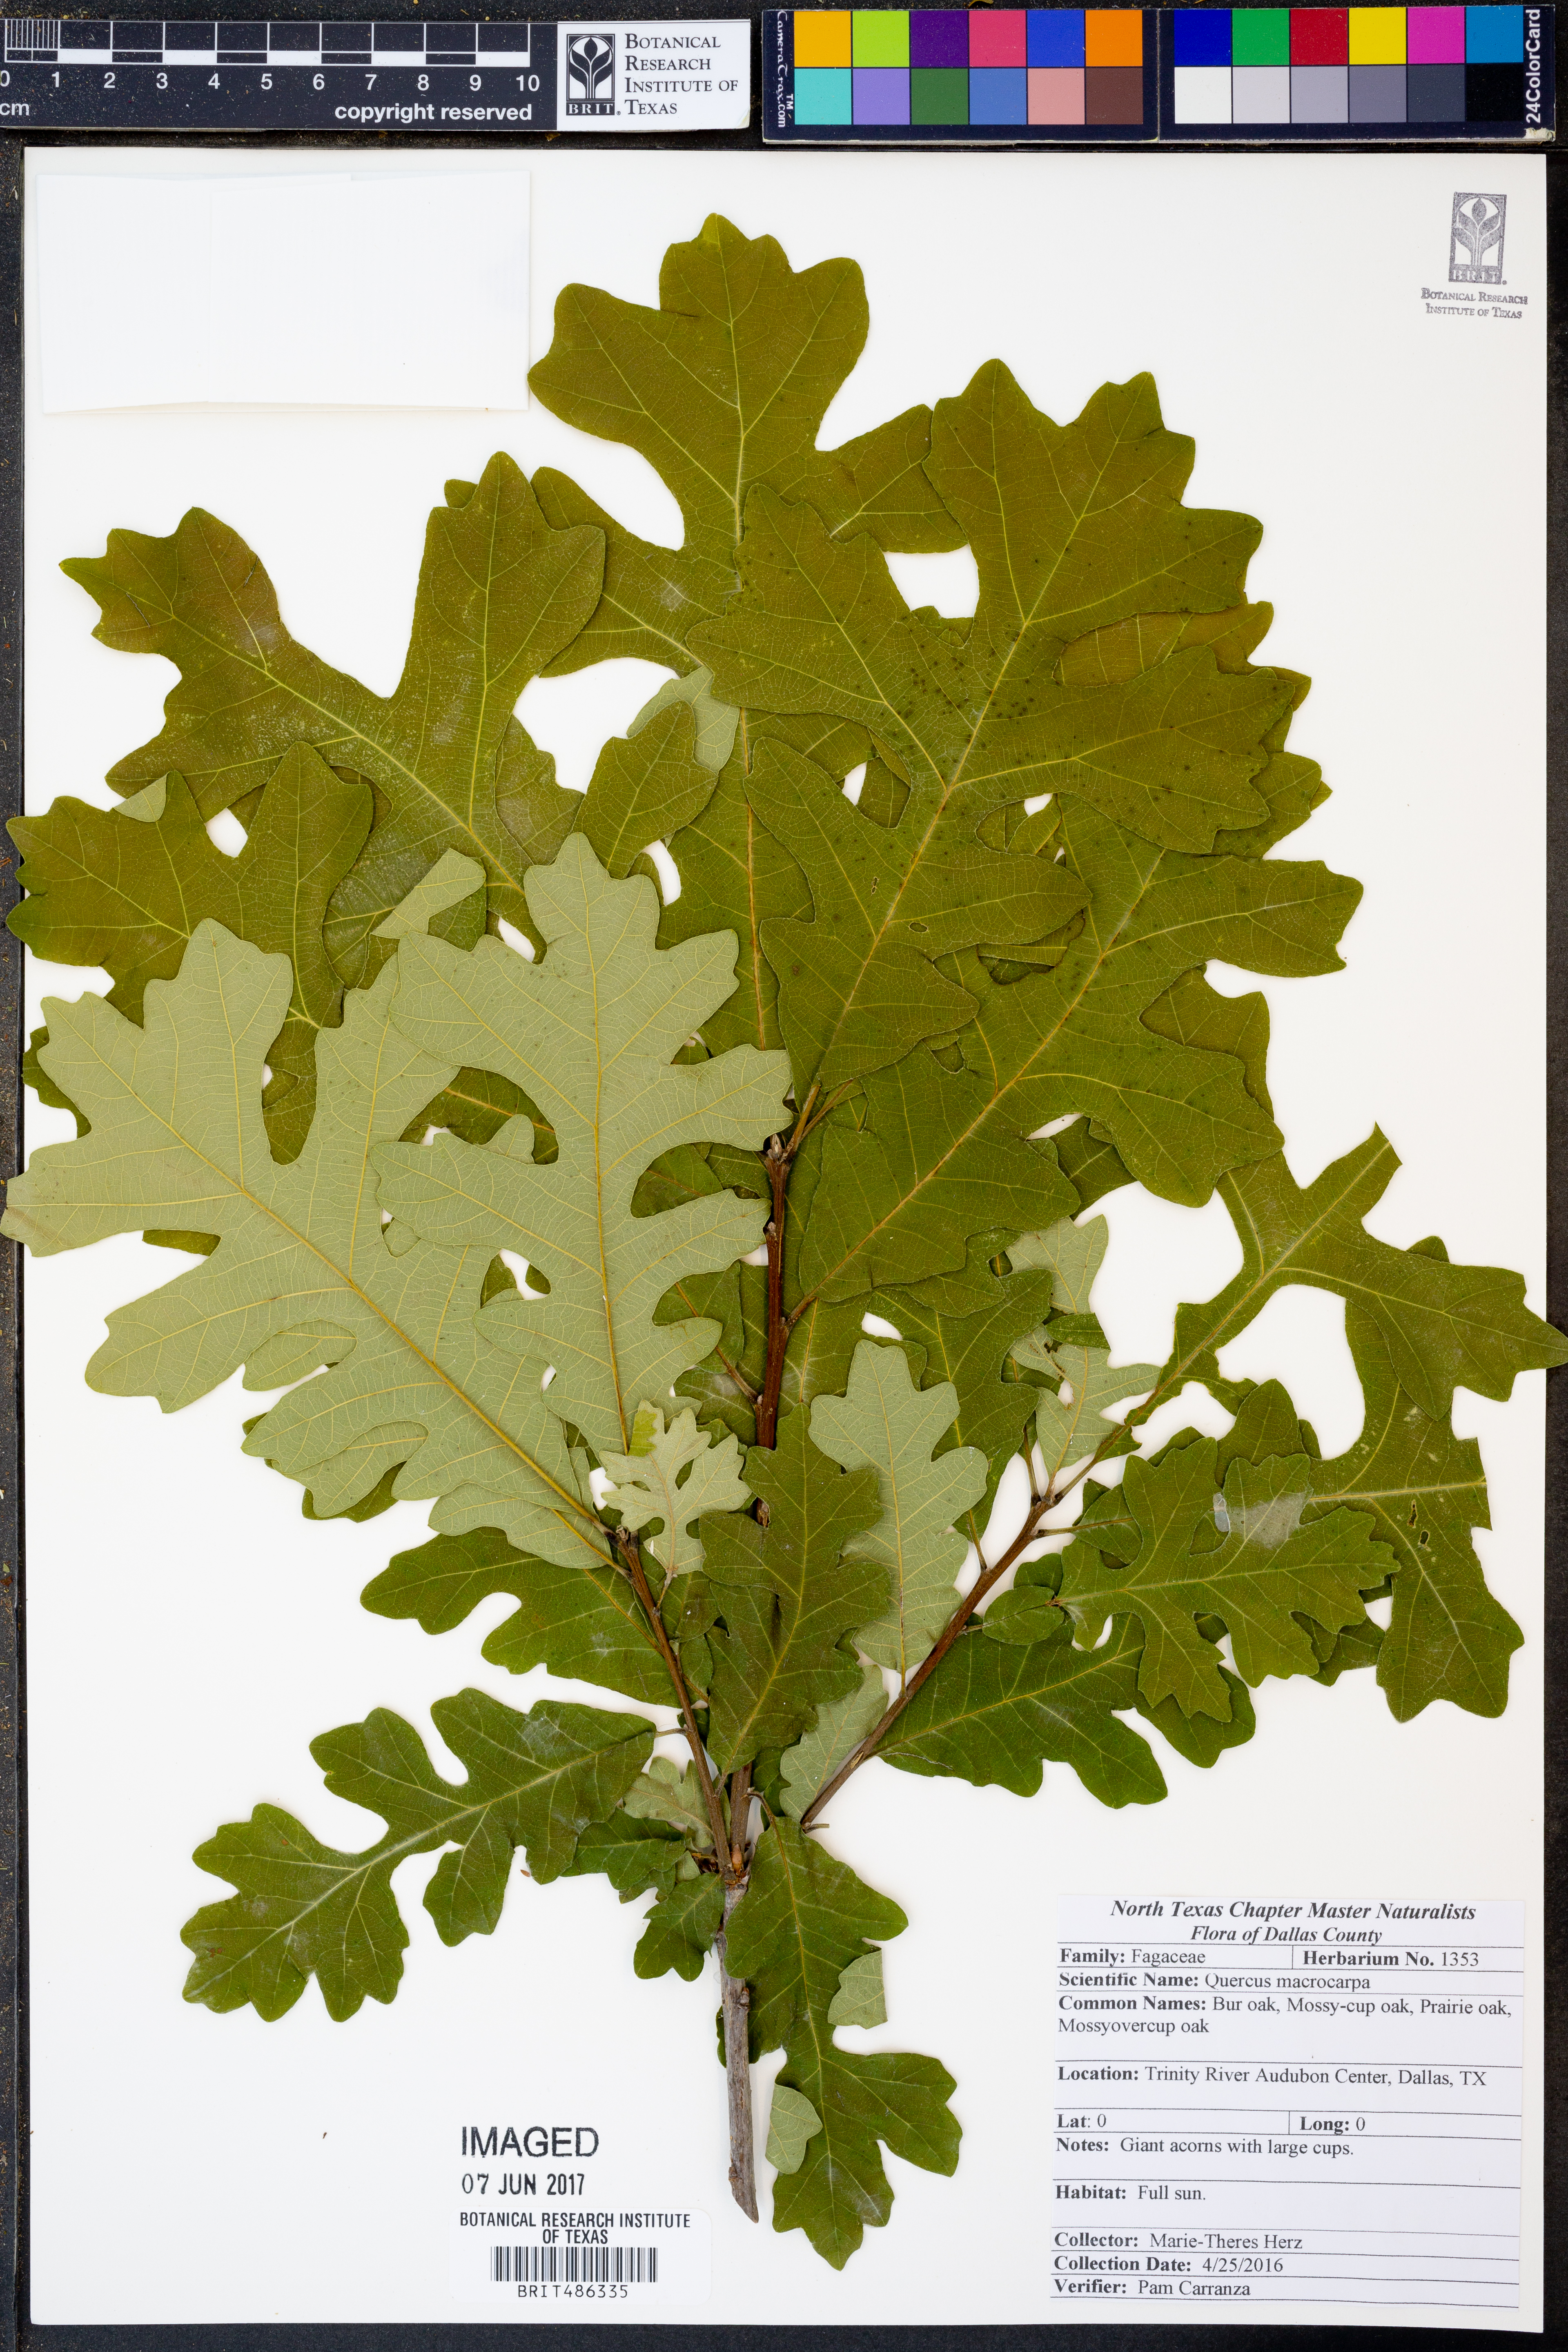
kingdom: Plantae
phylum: Tracheophyta
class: Magnoliopsida
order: Fagales
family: Fagaceae
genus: Quercus
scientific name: Quercus macrocarpa
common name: Bur oak
